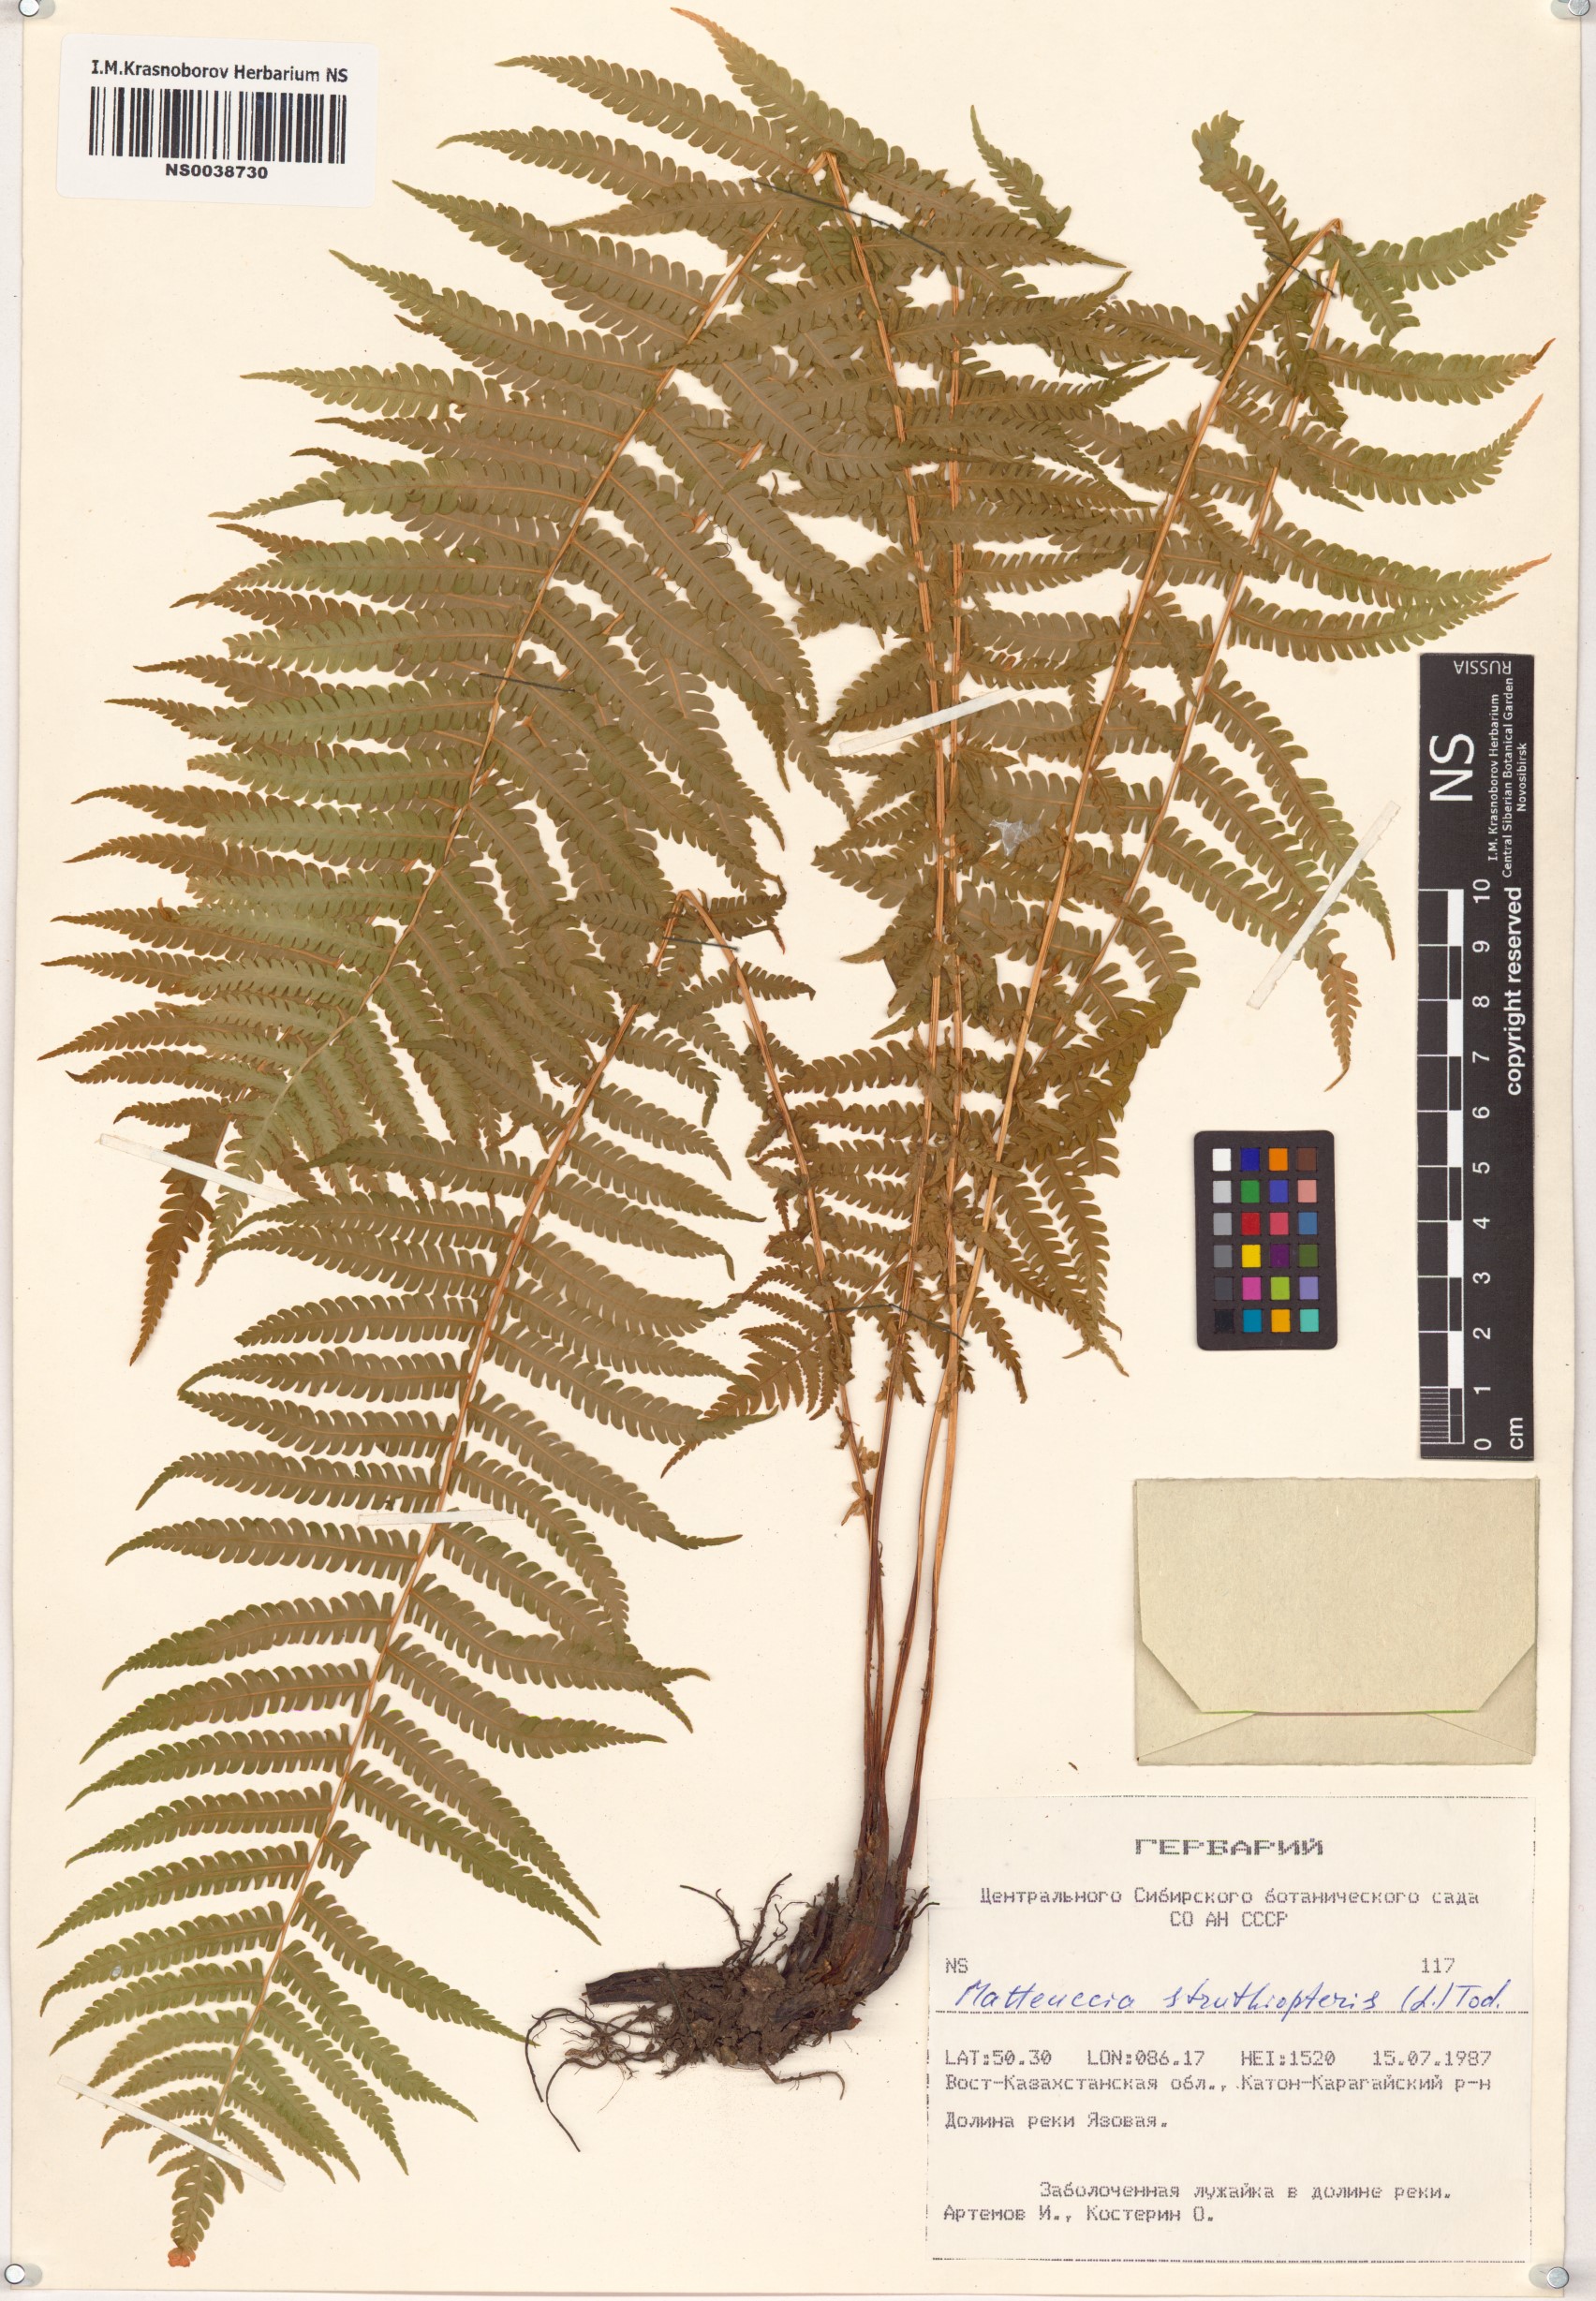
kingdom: Plantae
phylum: Tracheophyta
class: Polypodiopsida
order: Polypodiales
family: Onocleaceae
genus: Matteuccia
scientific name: Matteuccia struthiopteris
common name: Ostrich fern
